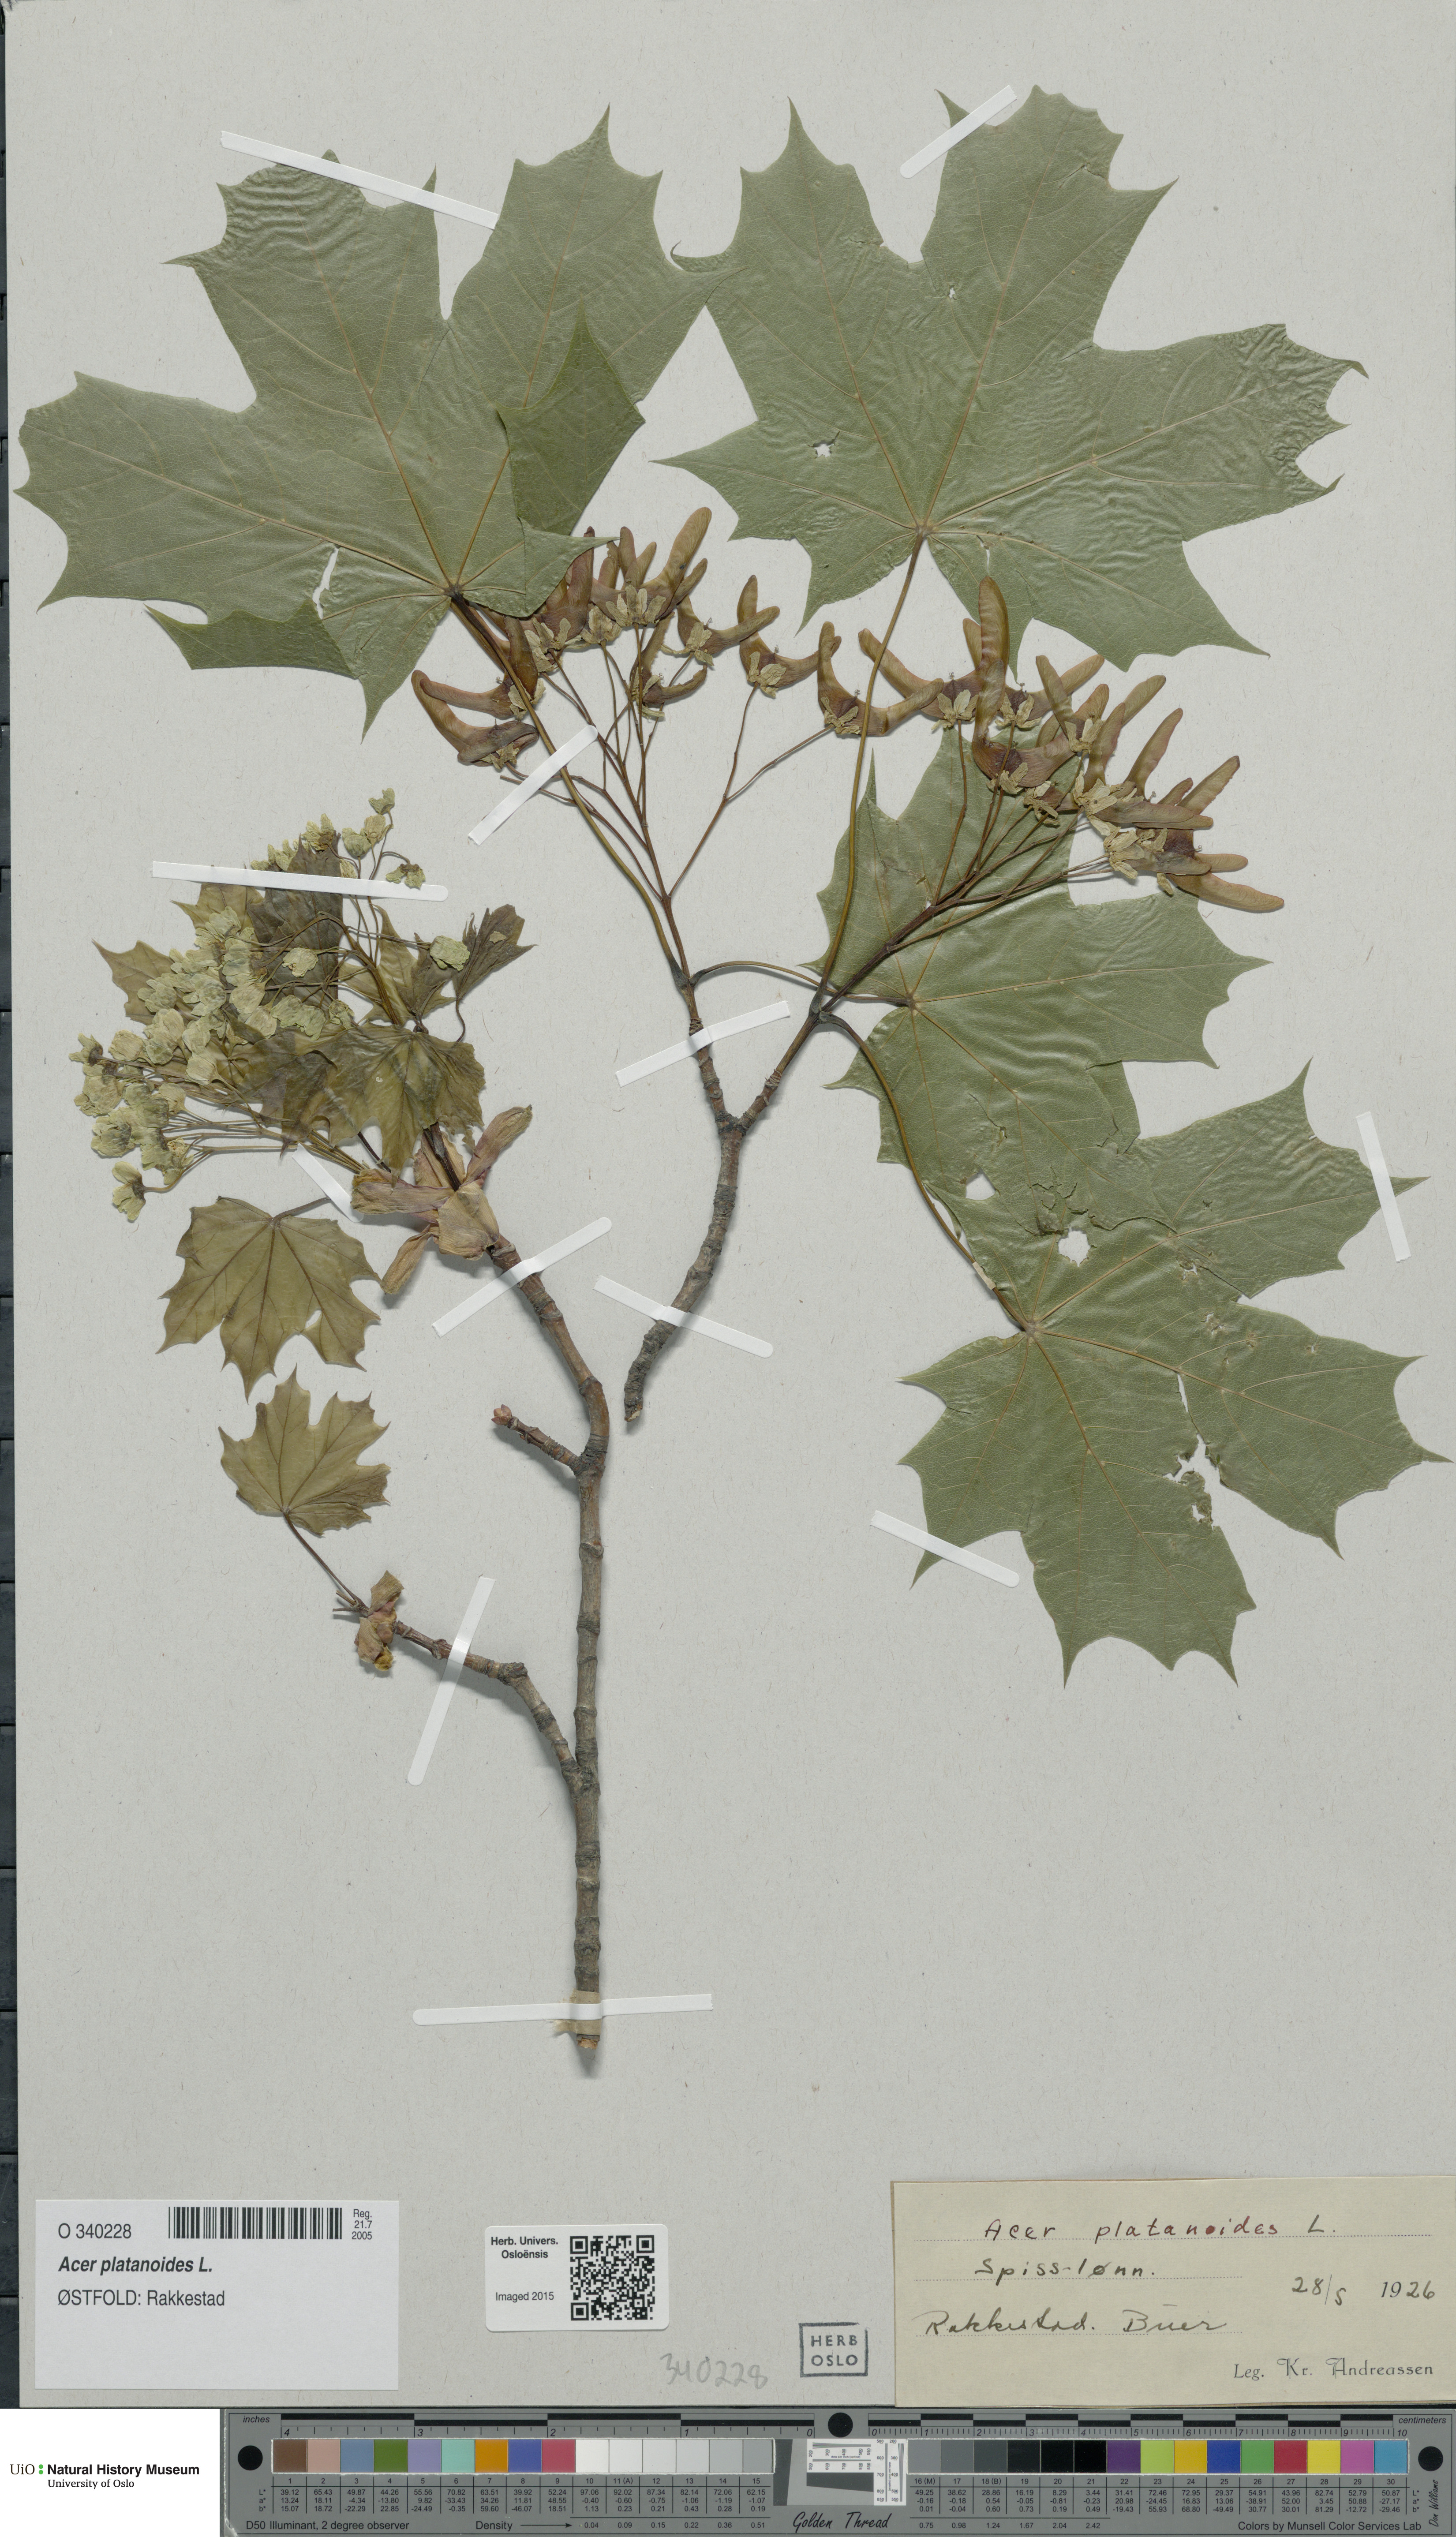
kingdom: Plantae
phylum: Tracheophyta
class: Magnoliopsida
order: Sapindales
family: Sapindaceae
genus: Acer
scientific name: Acer platanoides
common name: Norway maple
